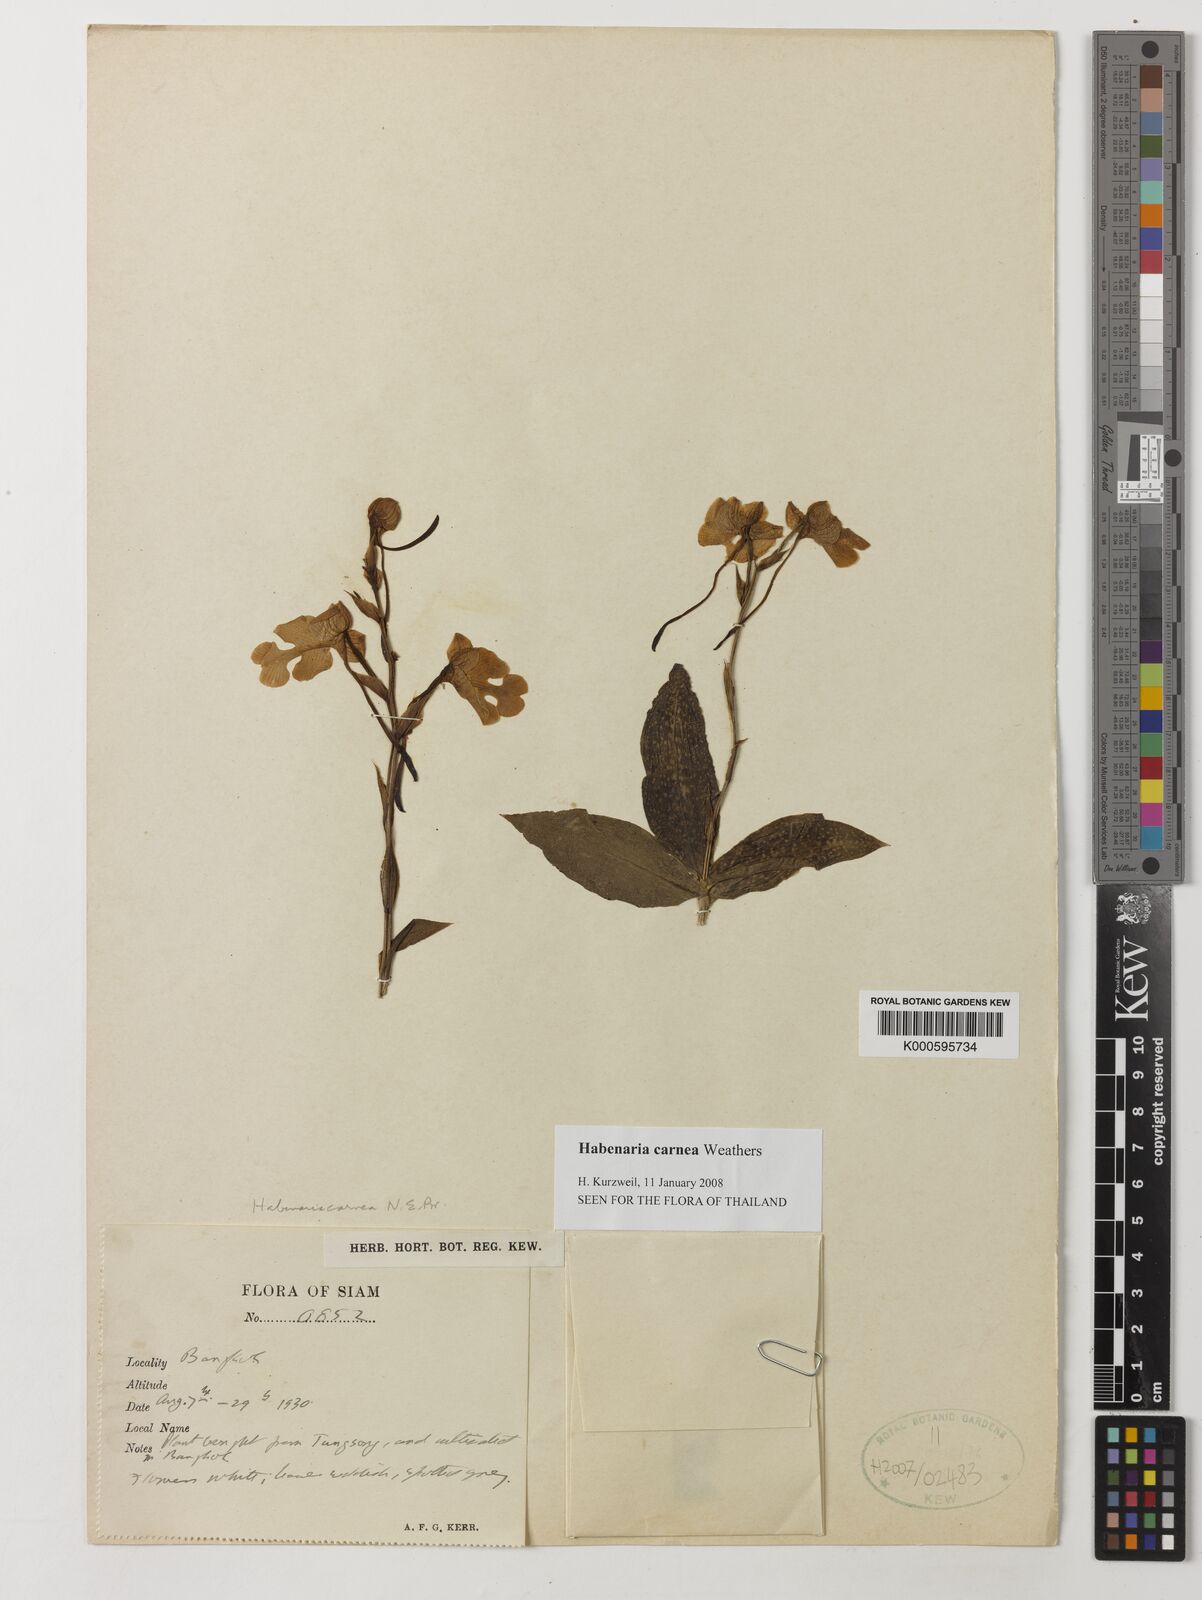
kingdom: Plantae
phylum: Tracheophyta
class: Liliopsida
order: Asparagales
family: Orchidaceae
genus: Habenaria
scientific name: Habenaria carnea
